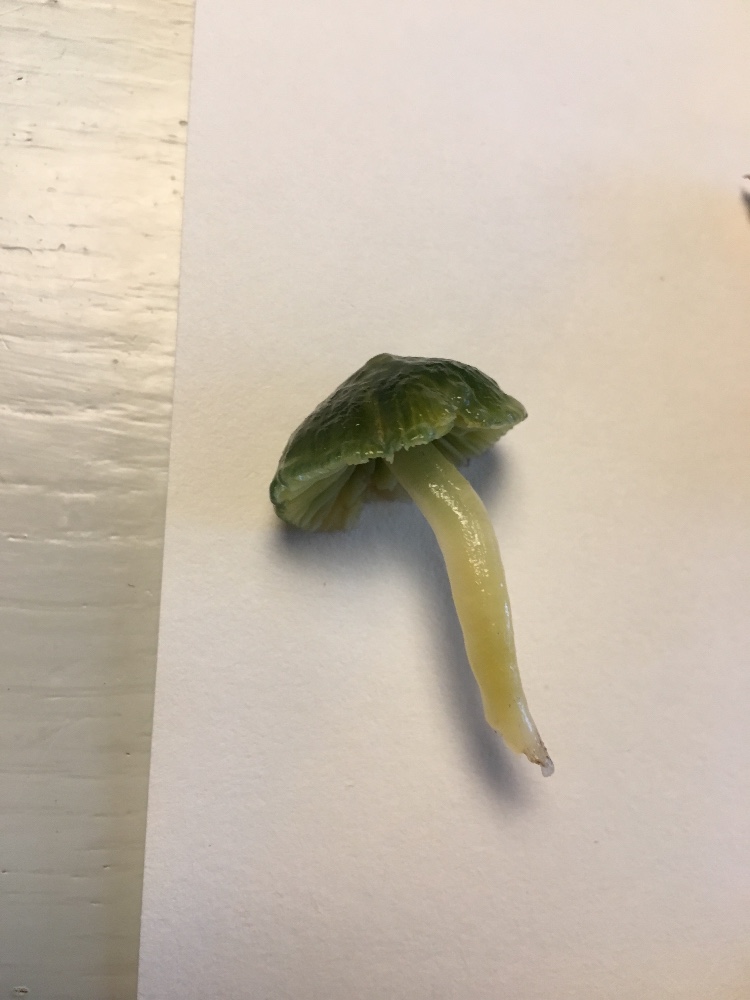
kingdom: Fungi
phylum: Basidiomycota
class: Agaricomycetes
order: Agaricales
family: Hygrophoraceae
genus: Gliophorus
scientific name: Gliophorus psittacinus
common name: papegøje-vokshat
